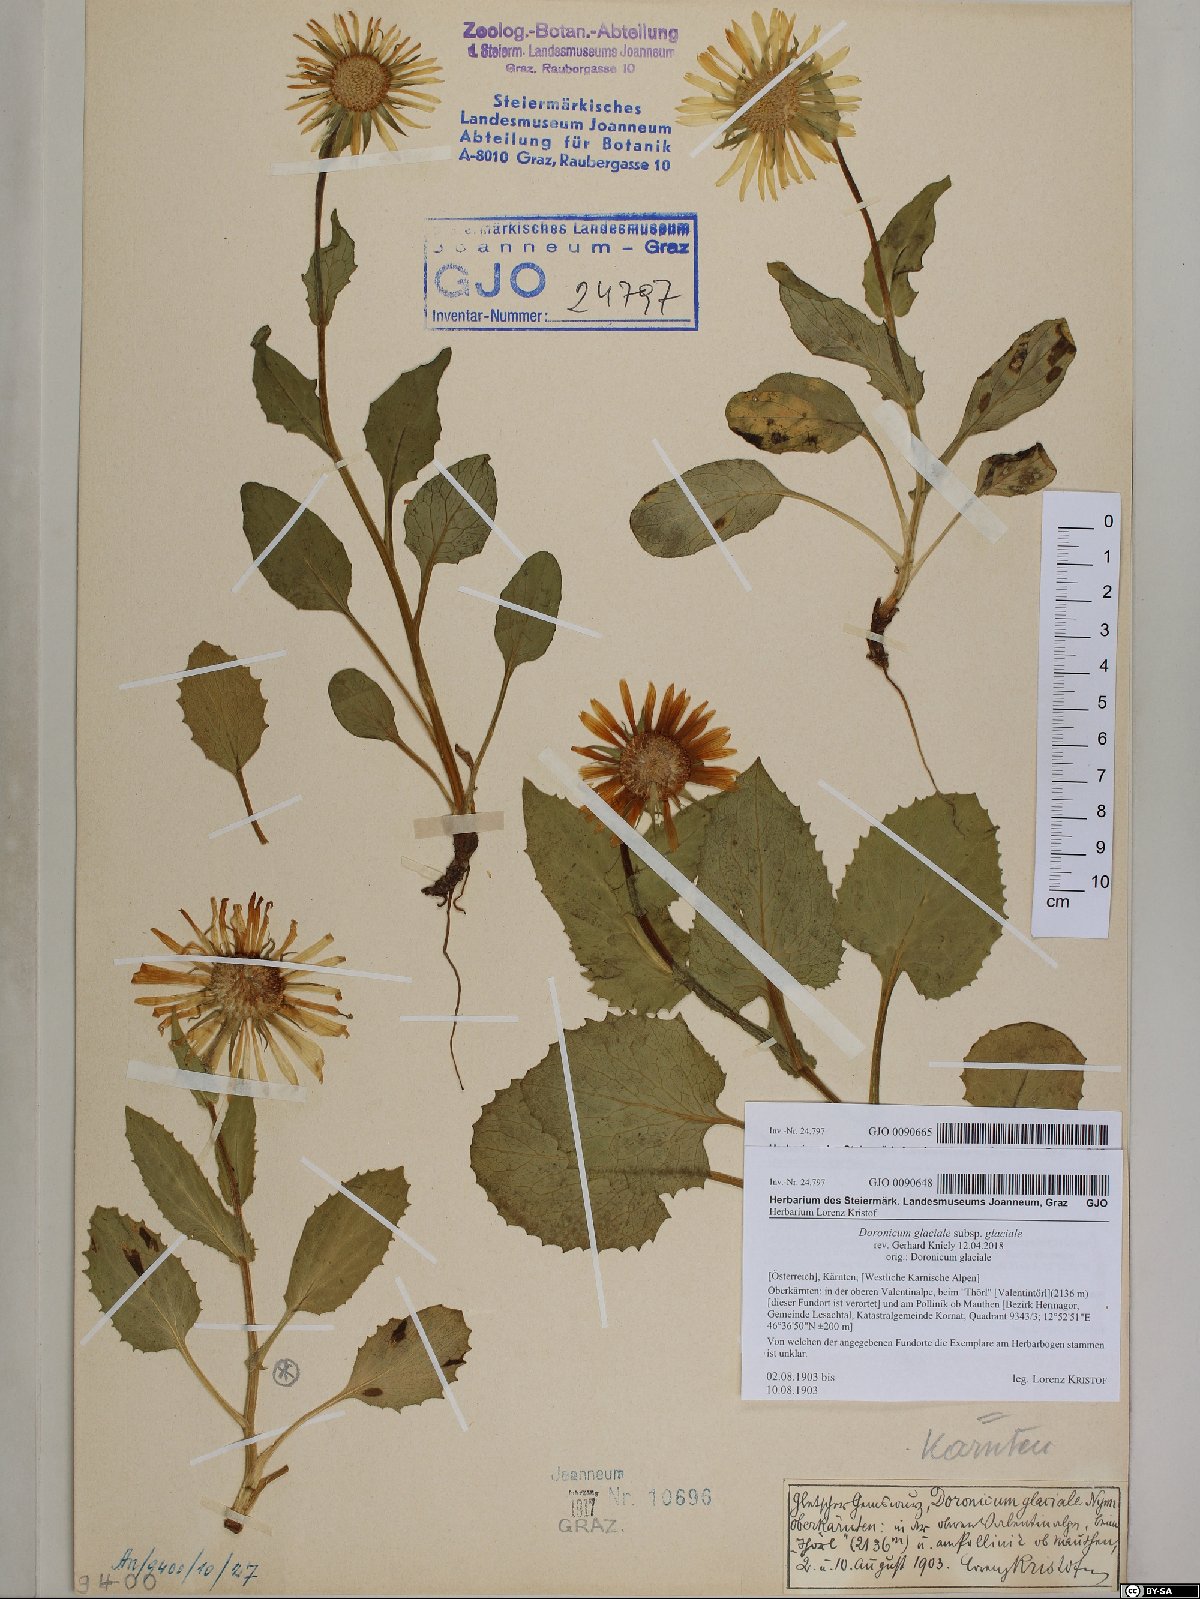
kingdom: Plantae
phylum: Tracheophyta
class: Magnoliopsida
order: Asterales
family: Asteraceae
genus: Doronicum
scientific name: Doronicum grandiflorum
